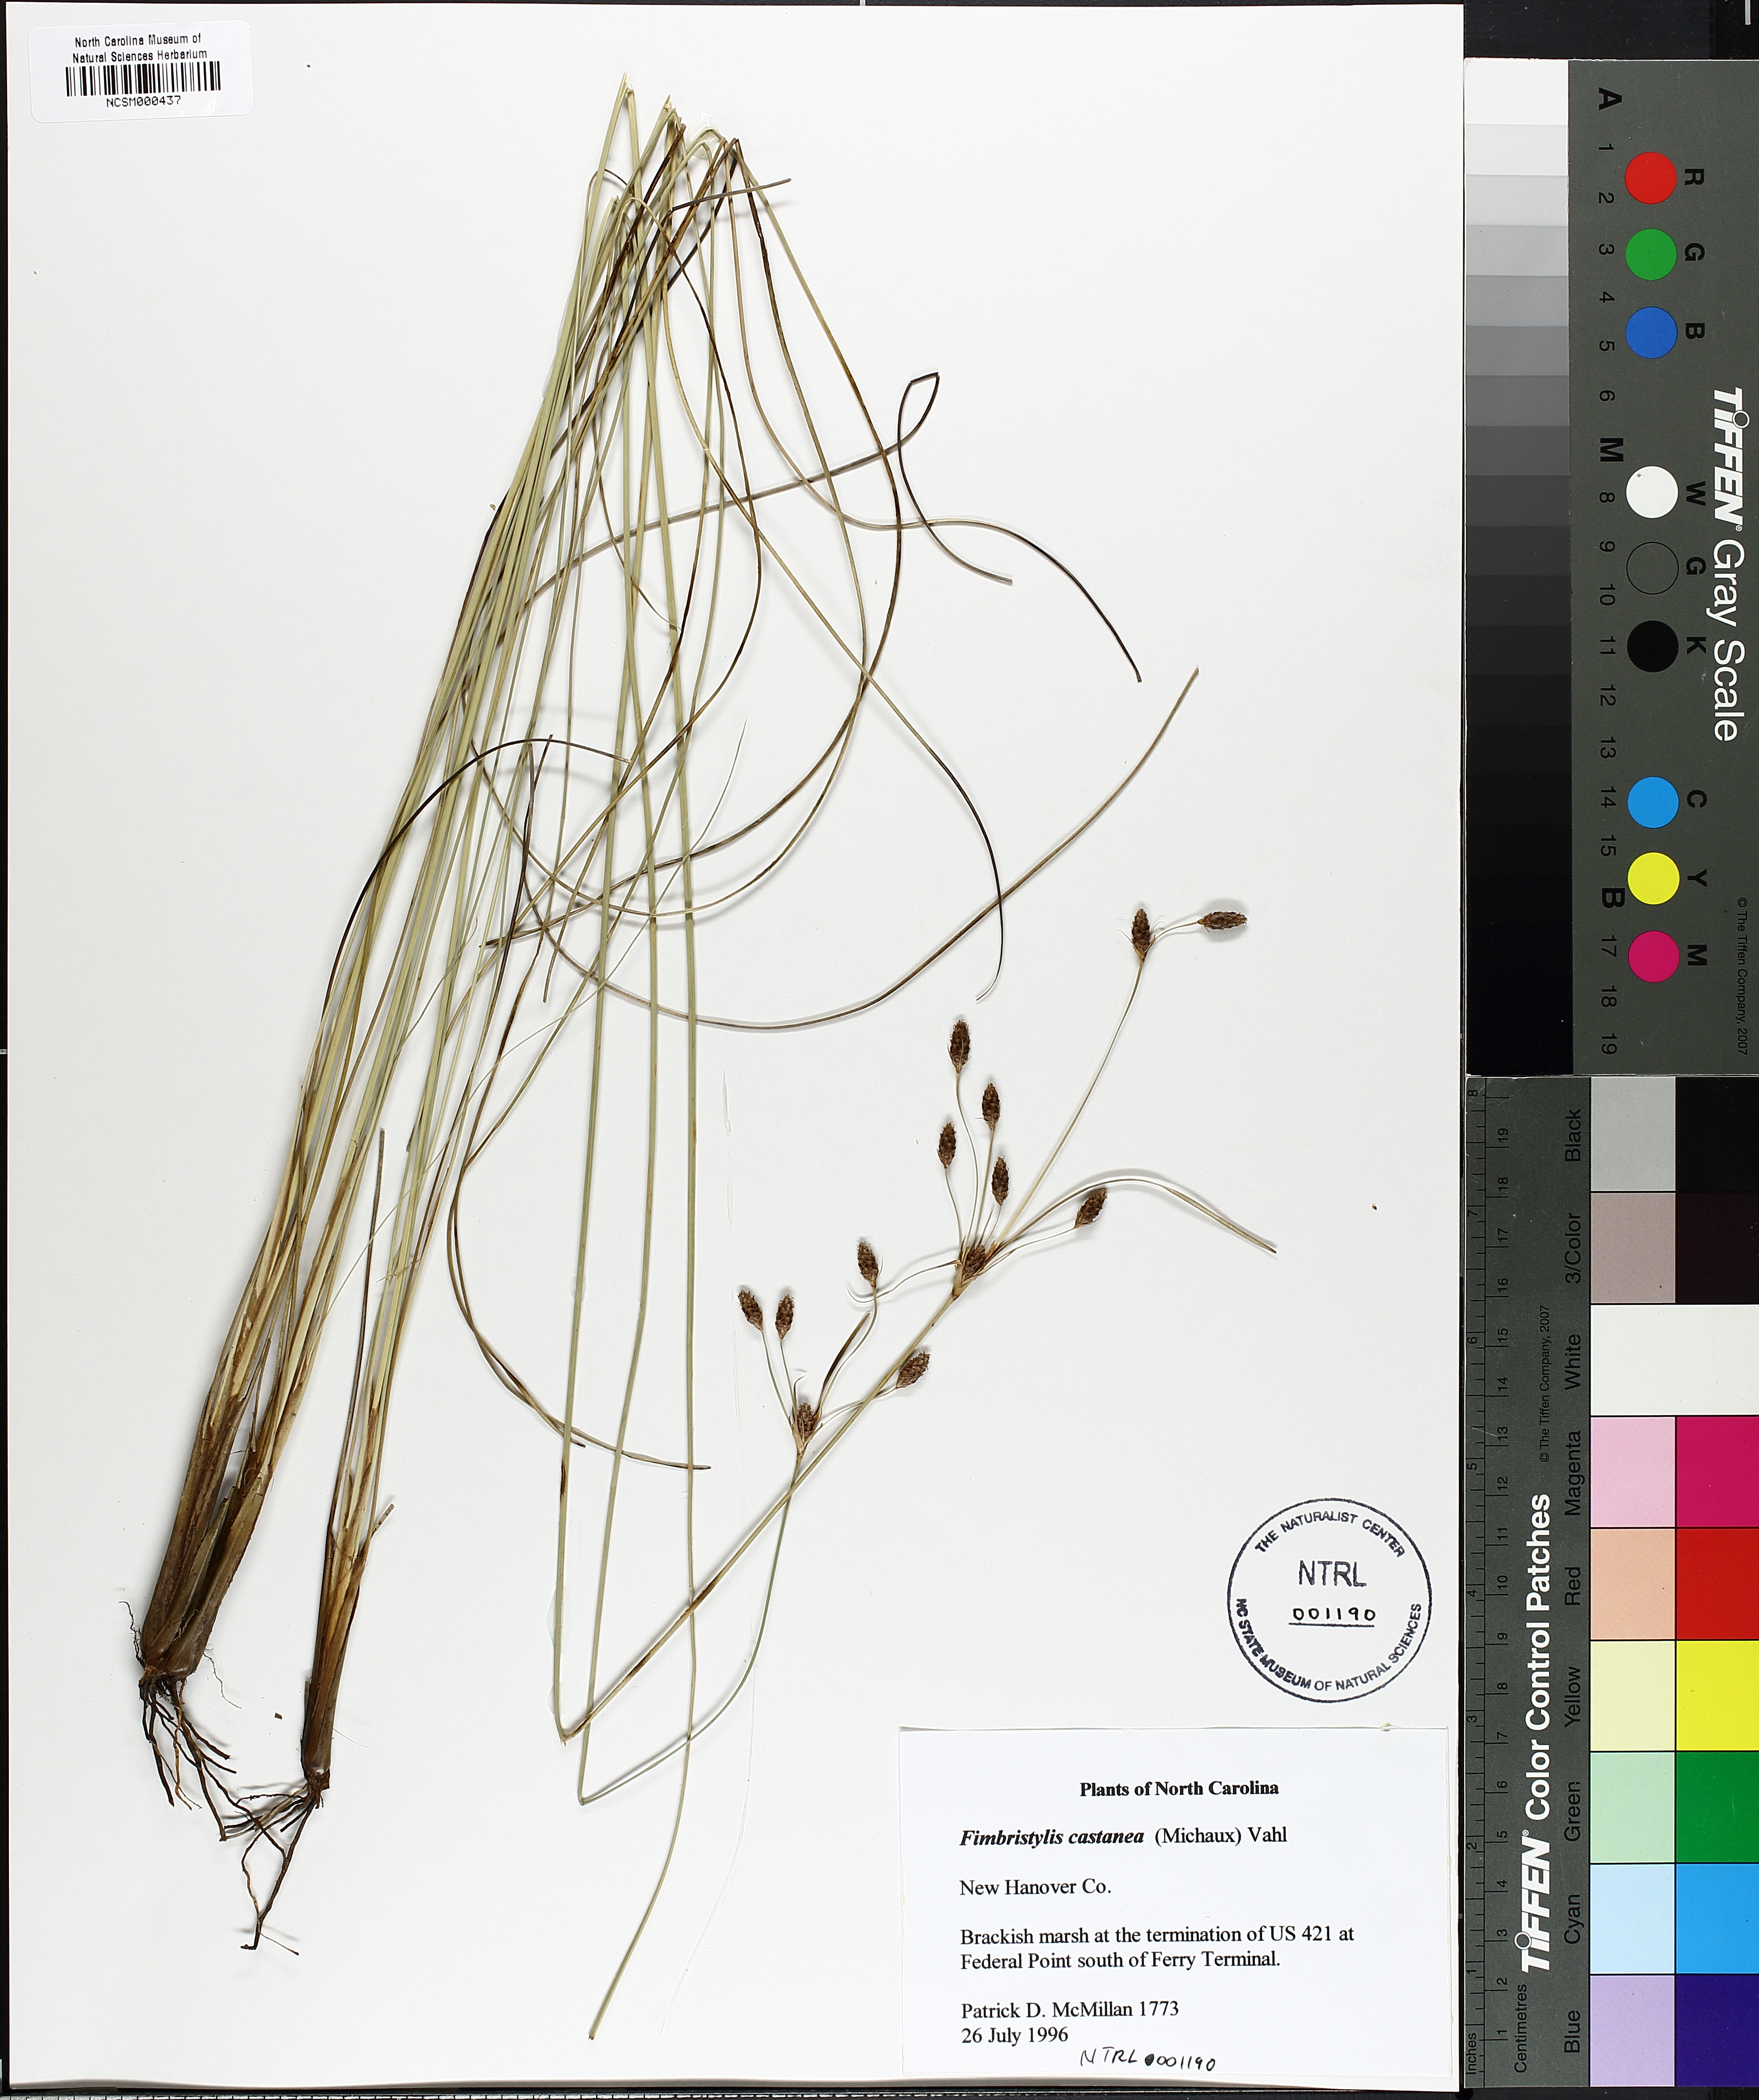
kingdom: Plantae
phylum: Tracheophyta
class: Liliopsida
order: Poales
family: Cyperaceae
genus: Fimbristylis
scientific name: Fimbristylis spadicea
